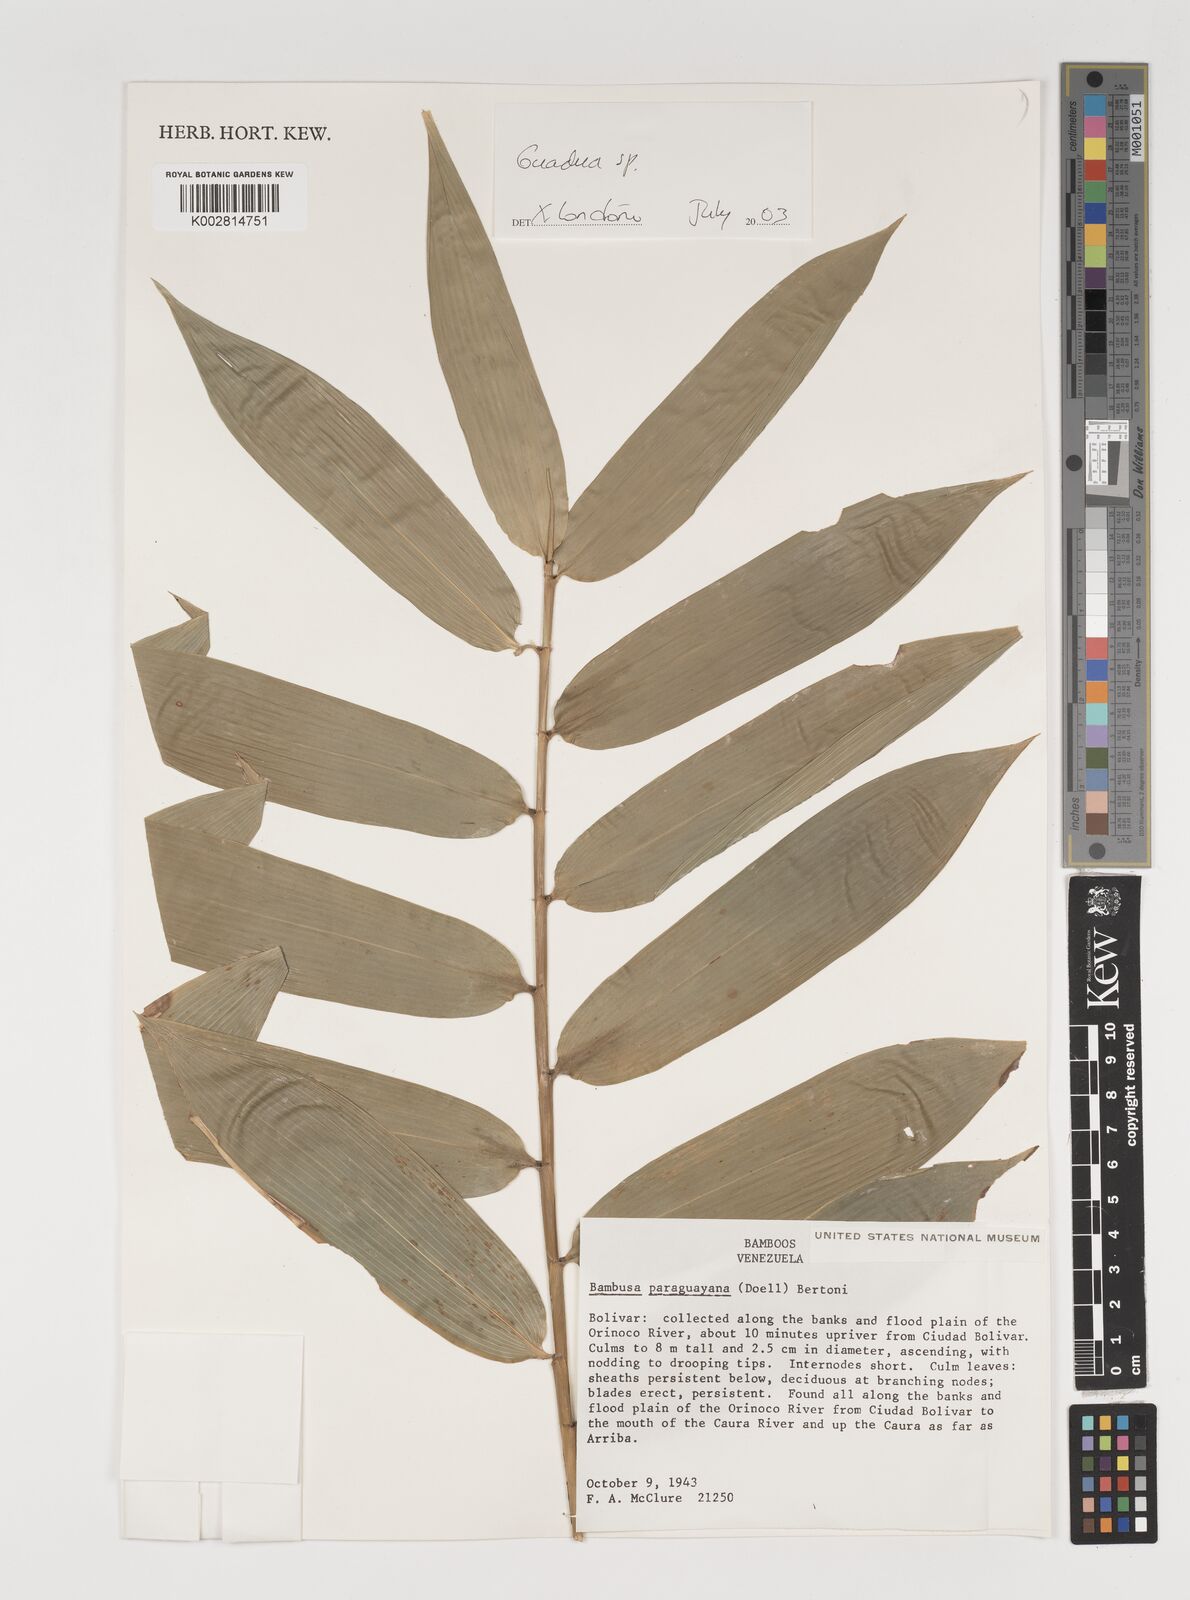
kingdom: Plantae
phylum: Tracheophyta
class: Liliopsida
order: Poales
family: Poaceae
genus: Guadua
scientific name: Guadua
